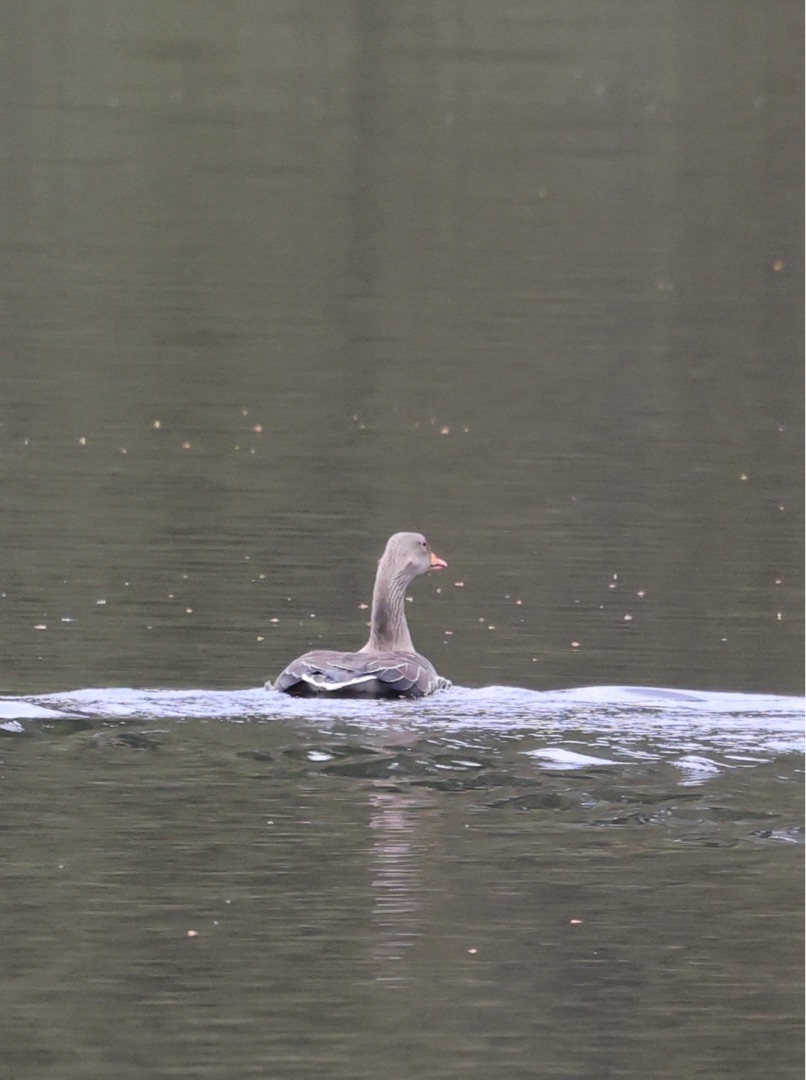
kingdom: Animalia
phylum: Chordata
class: Aves
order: Anseriformes
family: Anatidae
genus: Anser
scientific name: Anser anser
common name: Grågås
